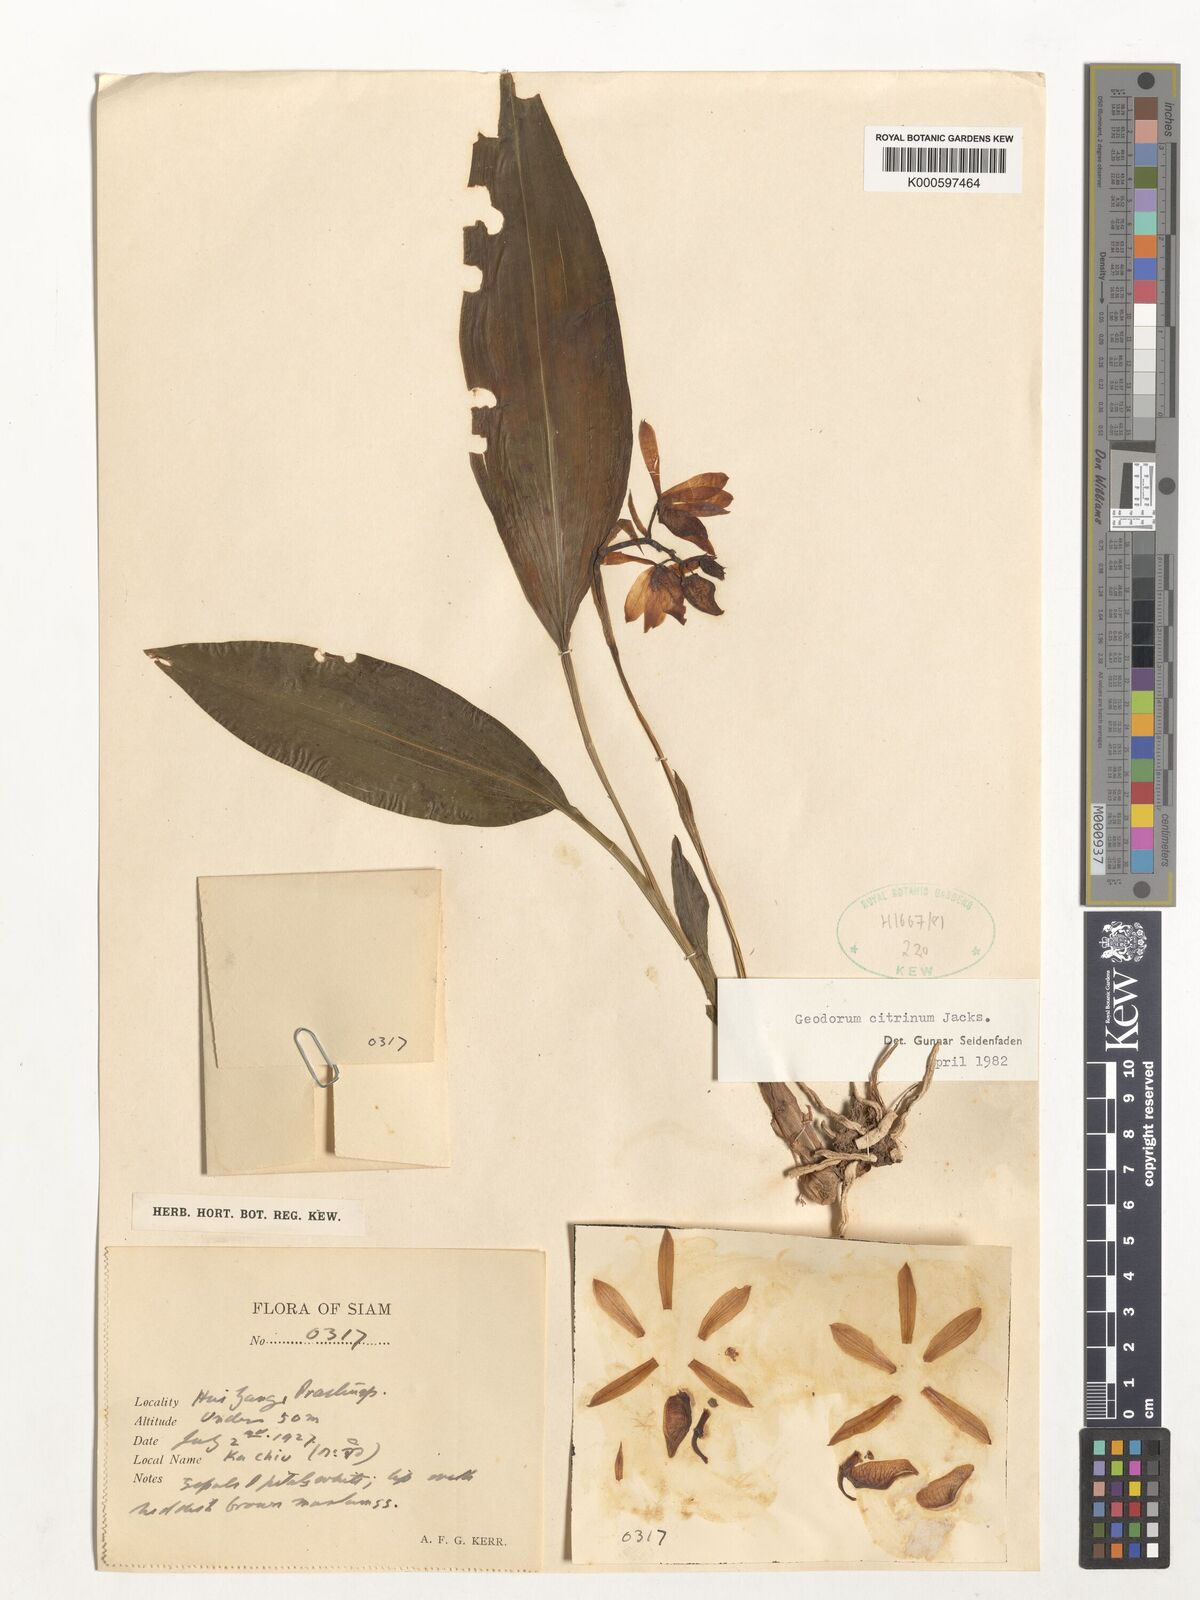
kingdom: Plantae
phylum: Tracheophyta
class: Liliopsida
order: Asparagales
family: Orchidaceae
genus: Geodorum
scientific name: Geodorum
